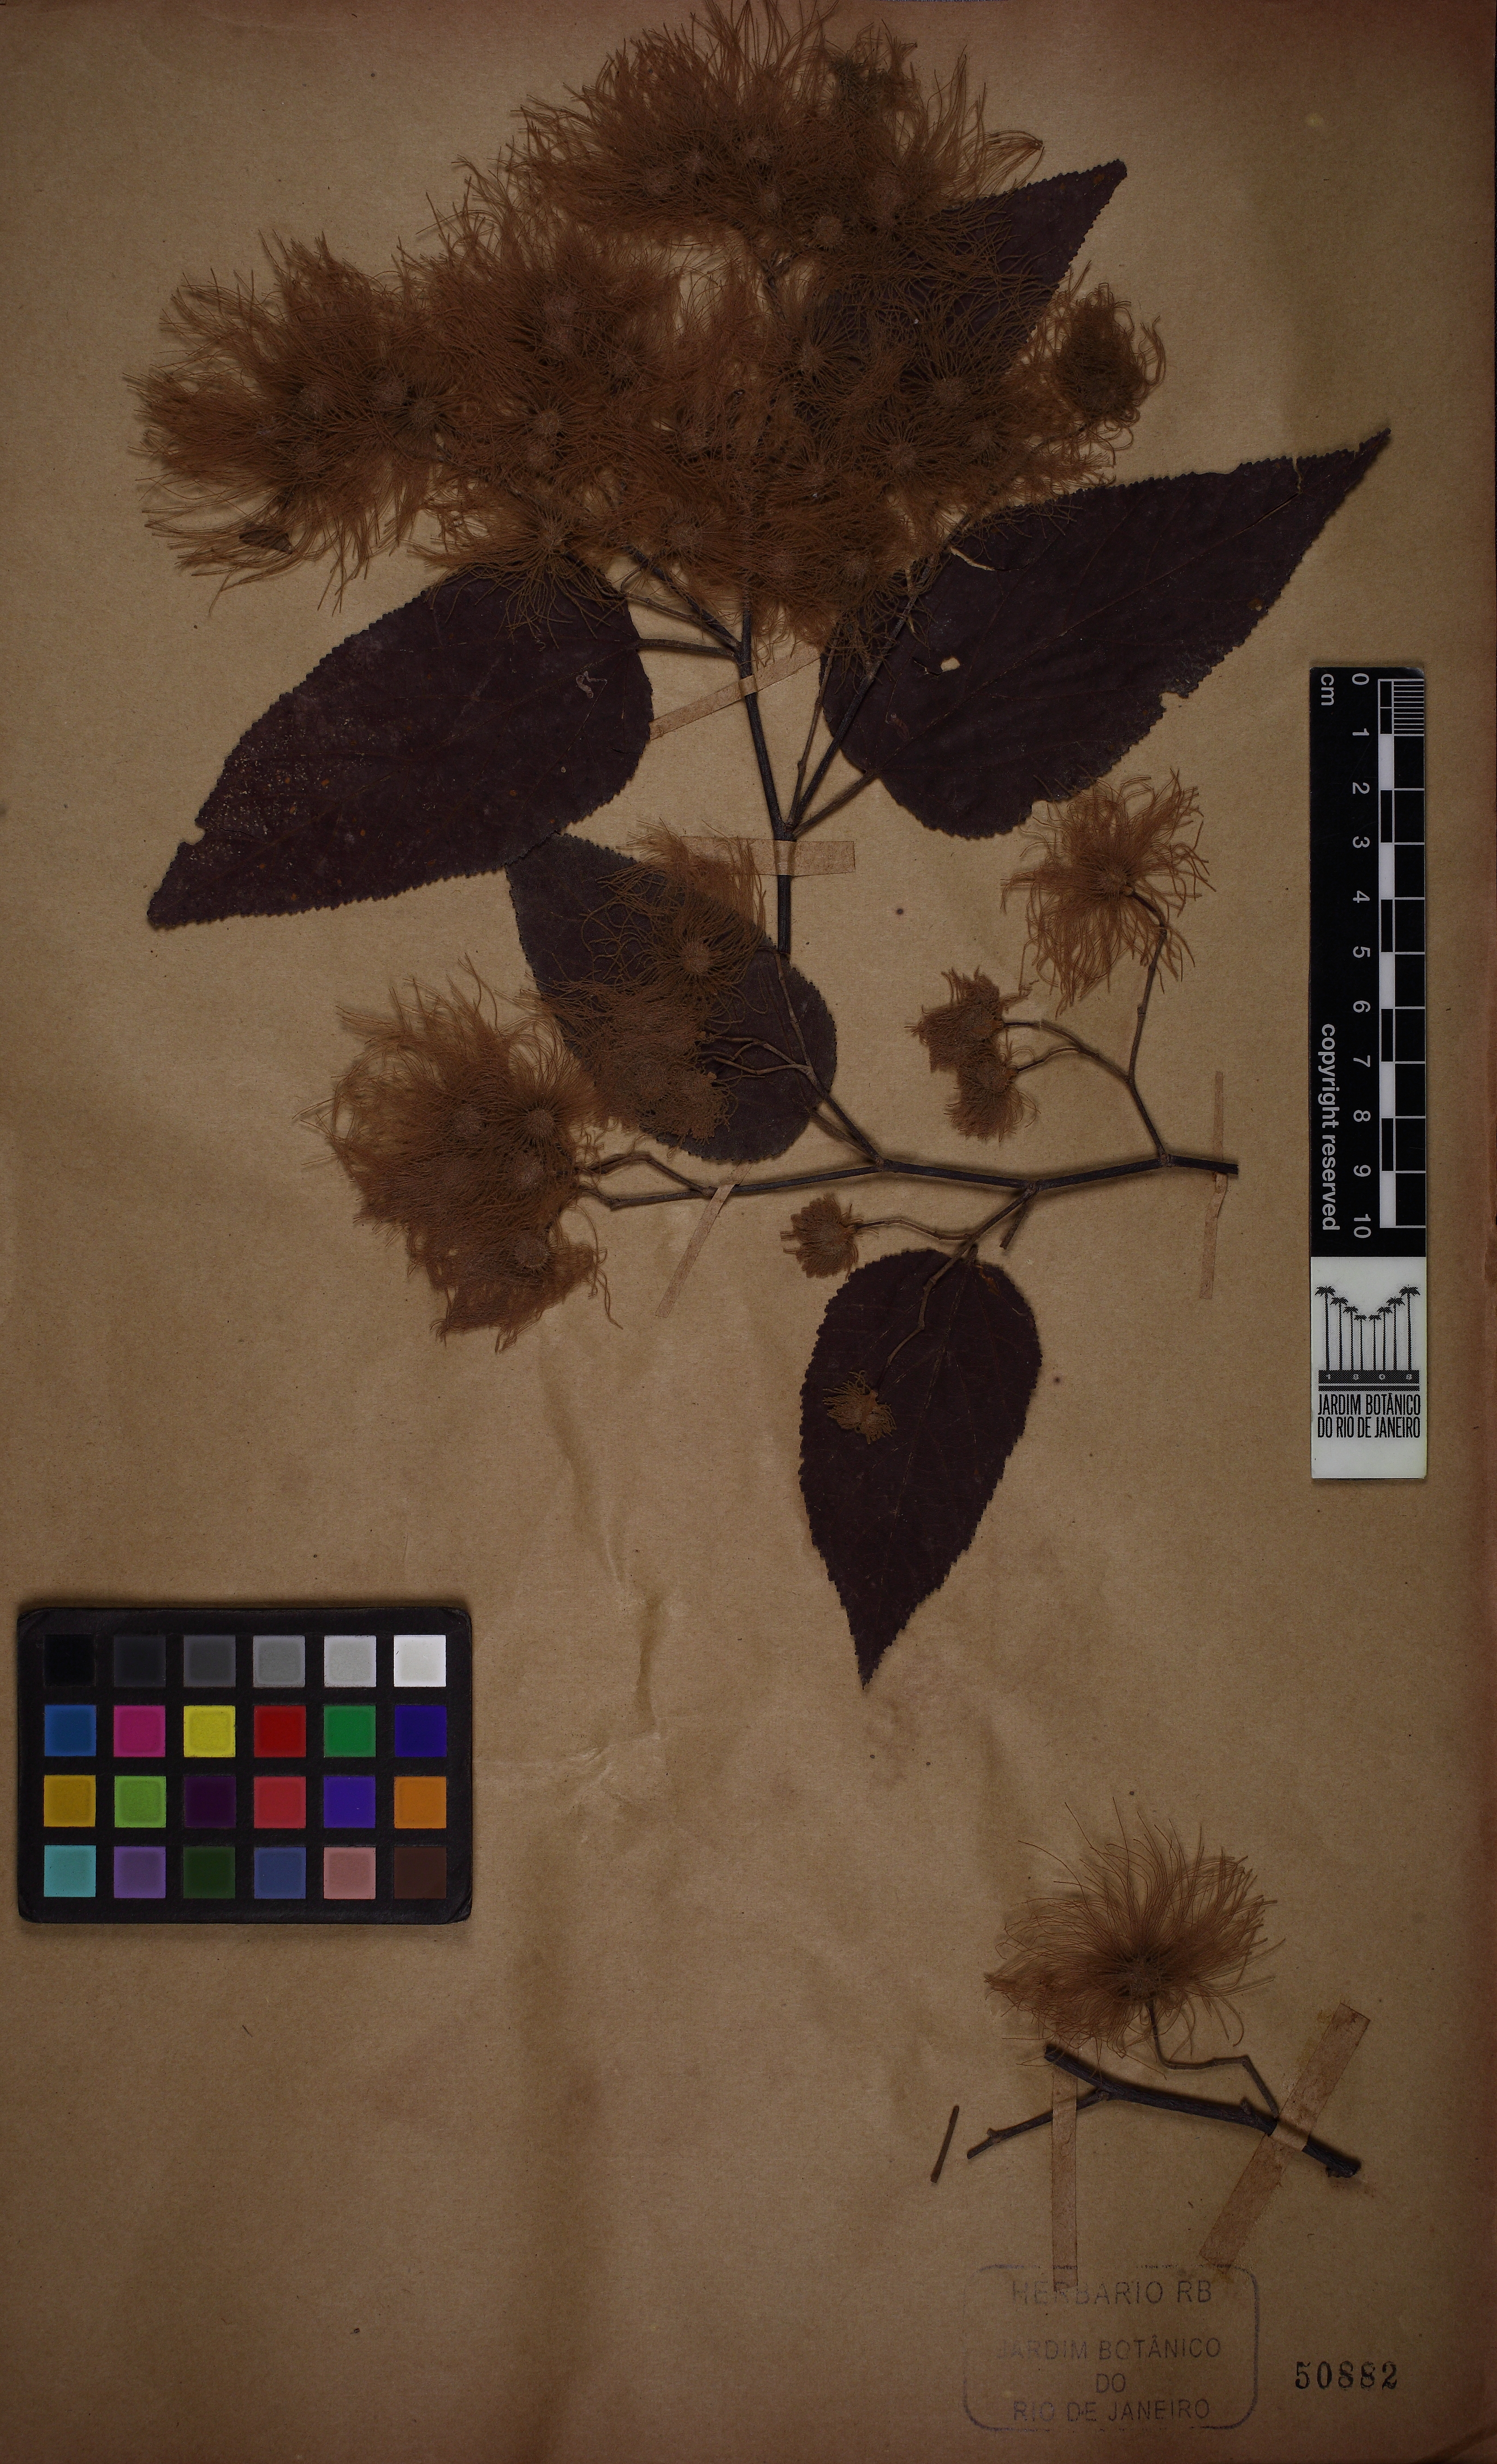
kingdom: Plantae
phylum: Tracheophyta
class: Magnoliopsida
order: Malvales
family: Malvaceae
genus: Guazuma
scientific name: Guazuma crinita
